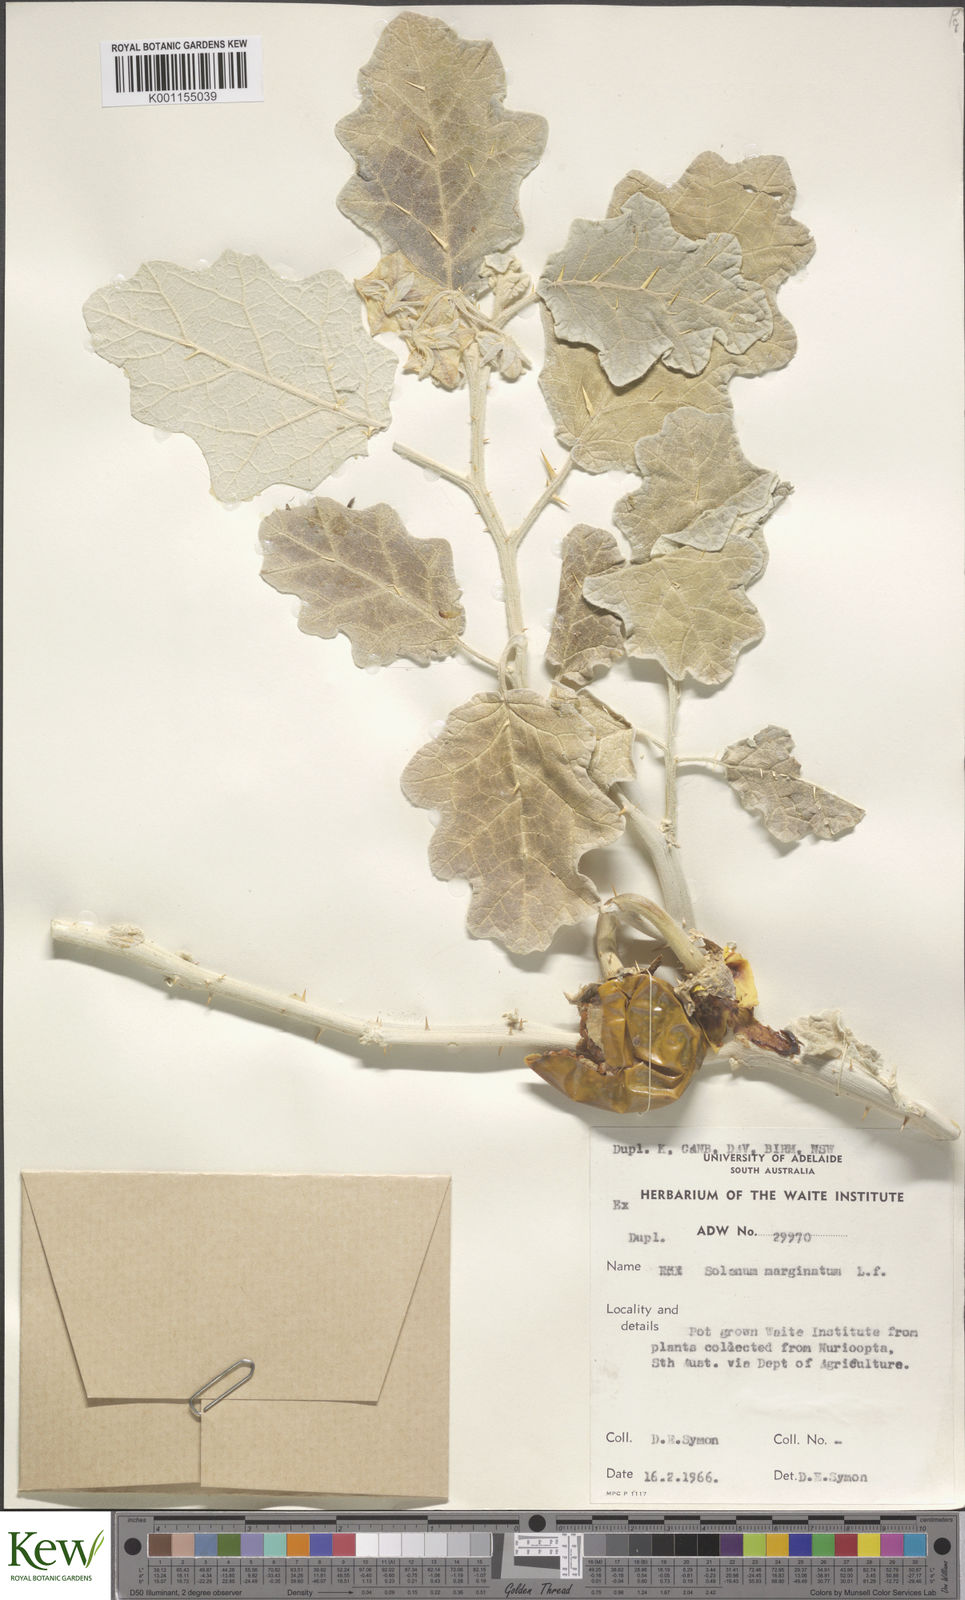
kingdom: Plantae
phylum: Tracheophyta
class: Magnoliopsida
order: Solanales
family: Solanaceae
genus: Solanum
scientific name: Solanum marginatum
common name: Purple african nightshade
